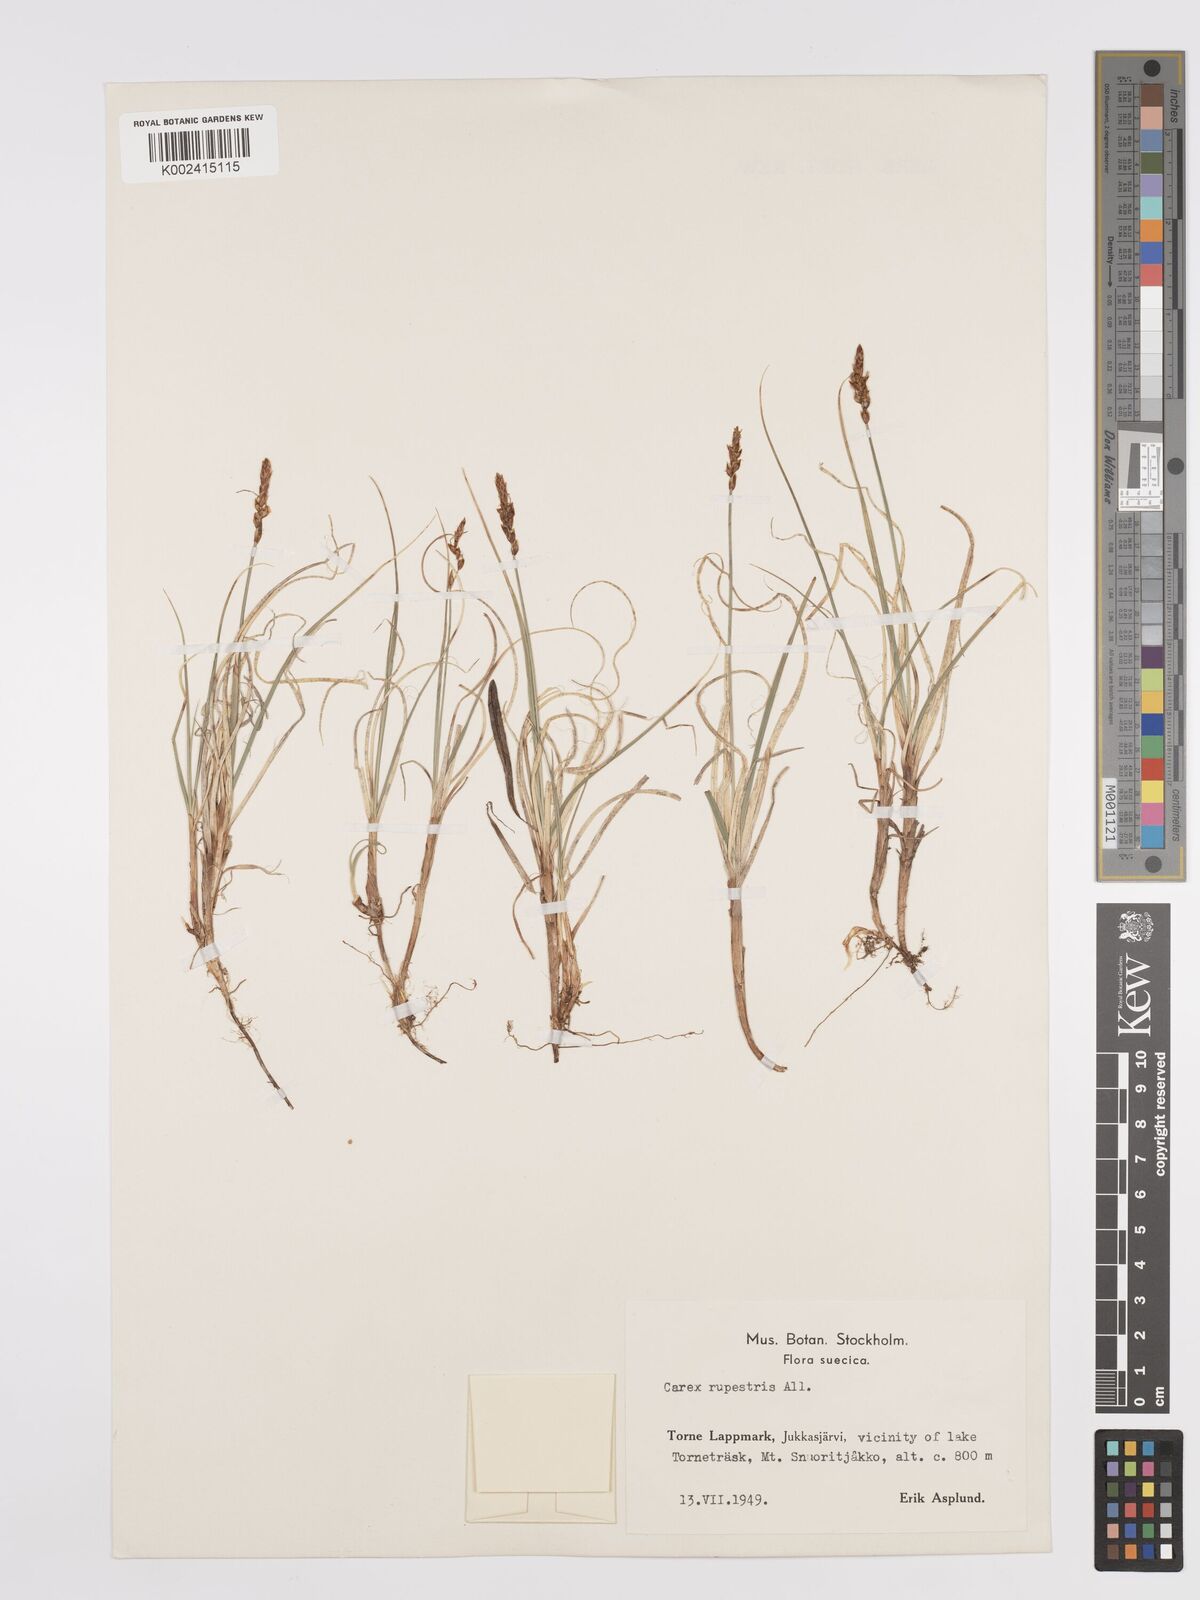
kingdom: Plantae
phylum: Tracheophyta
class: Liliopsida
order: Poales
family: Cyperaceae
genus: Carex
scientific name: Carex rupestris
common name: Rock sedge
